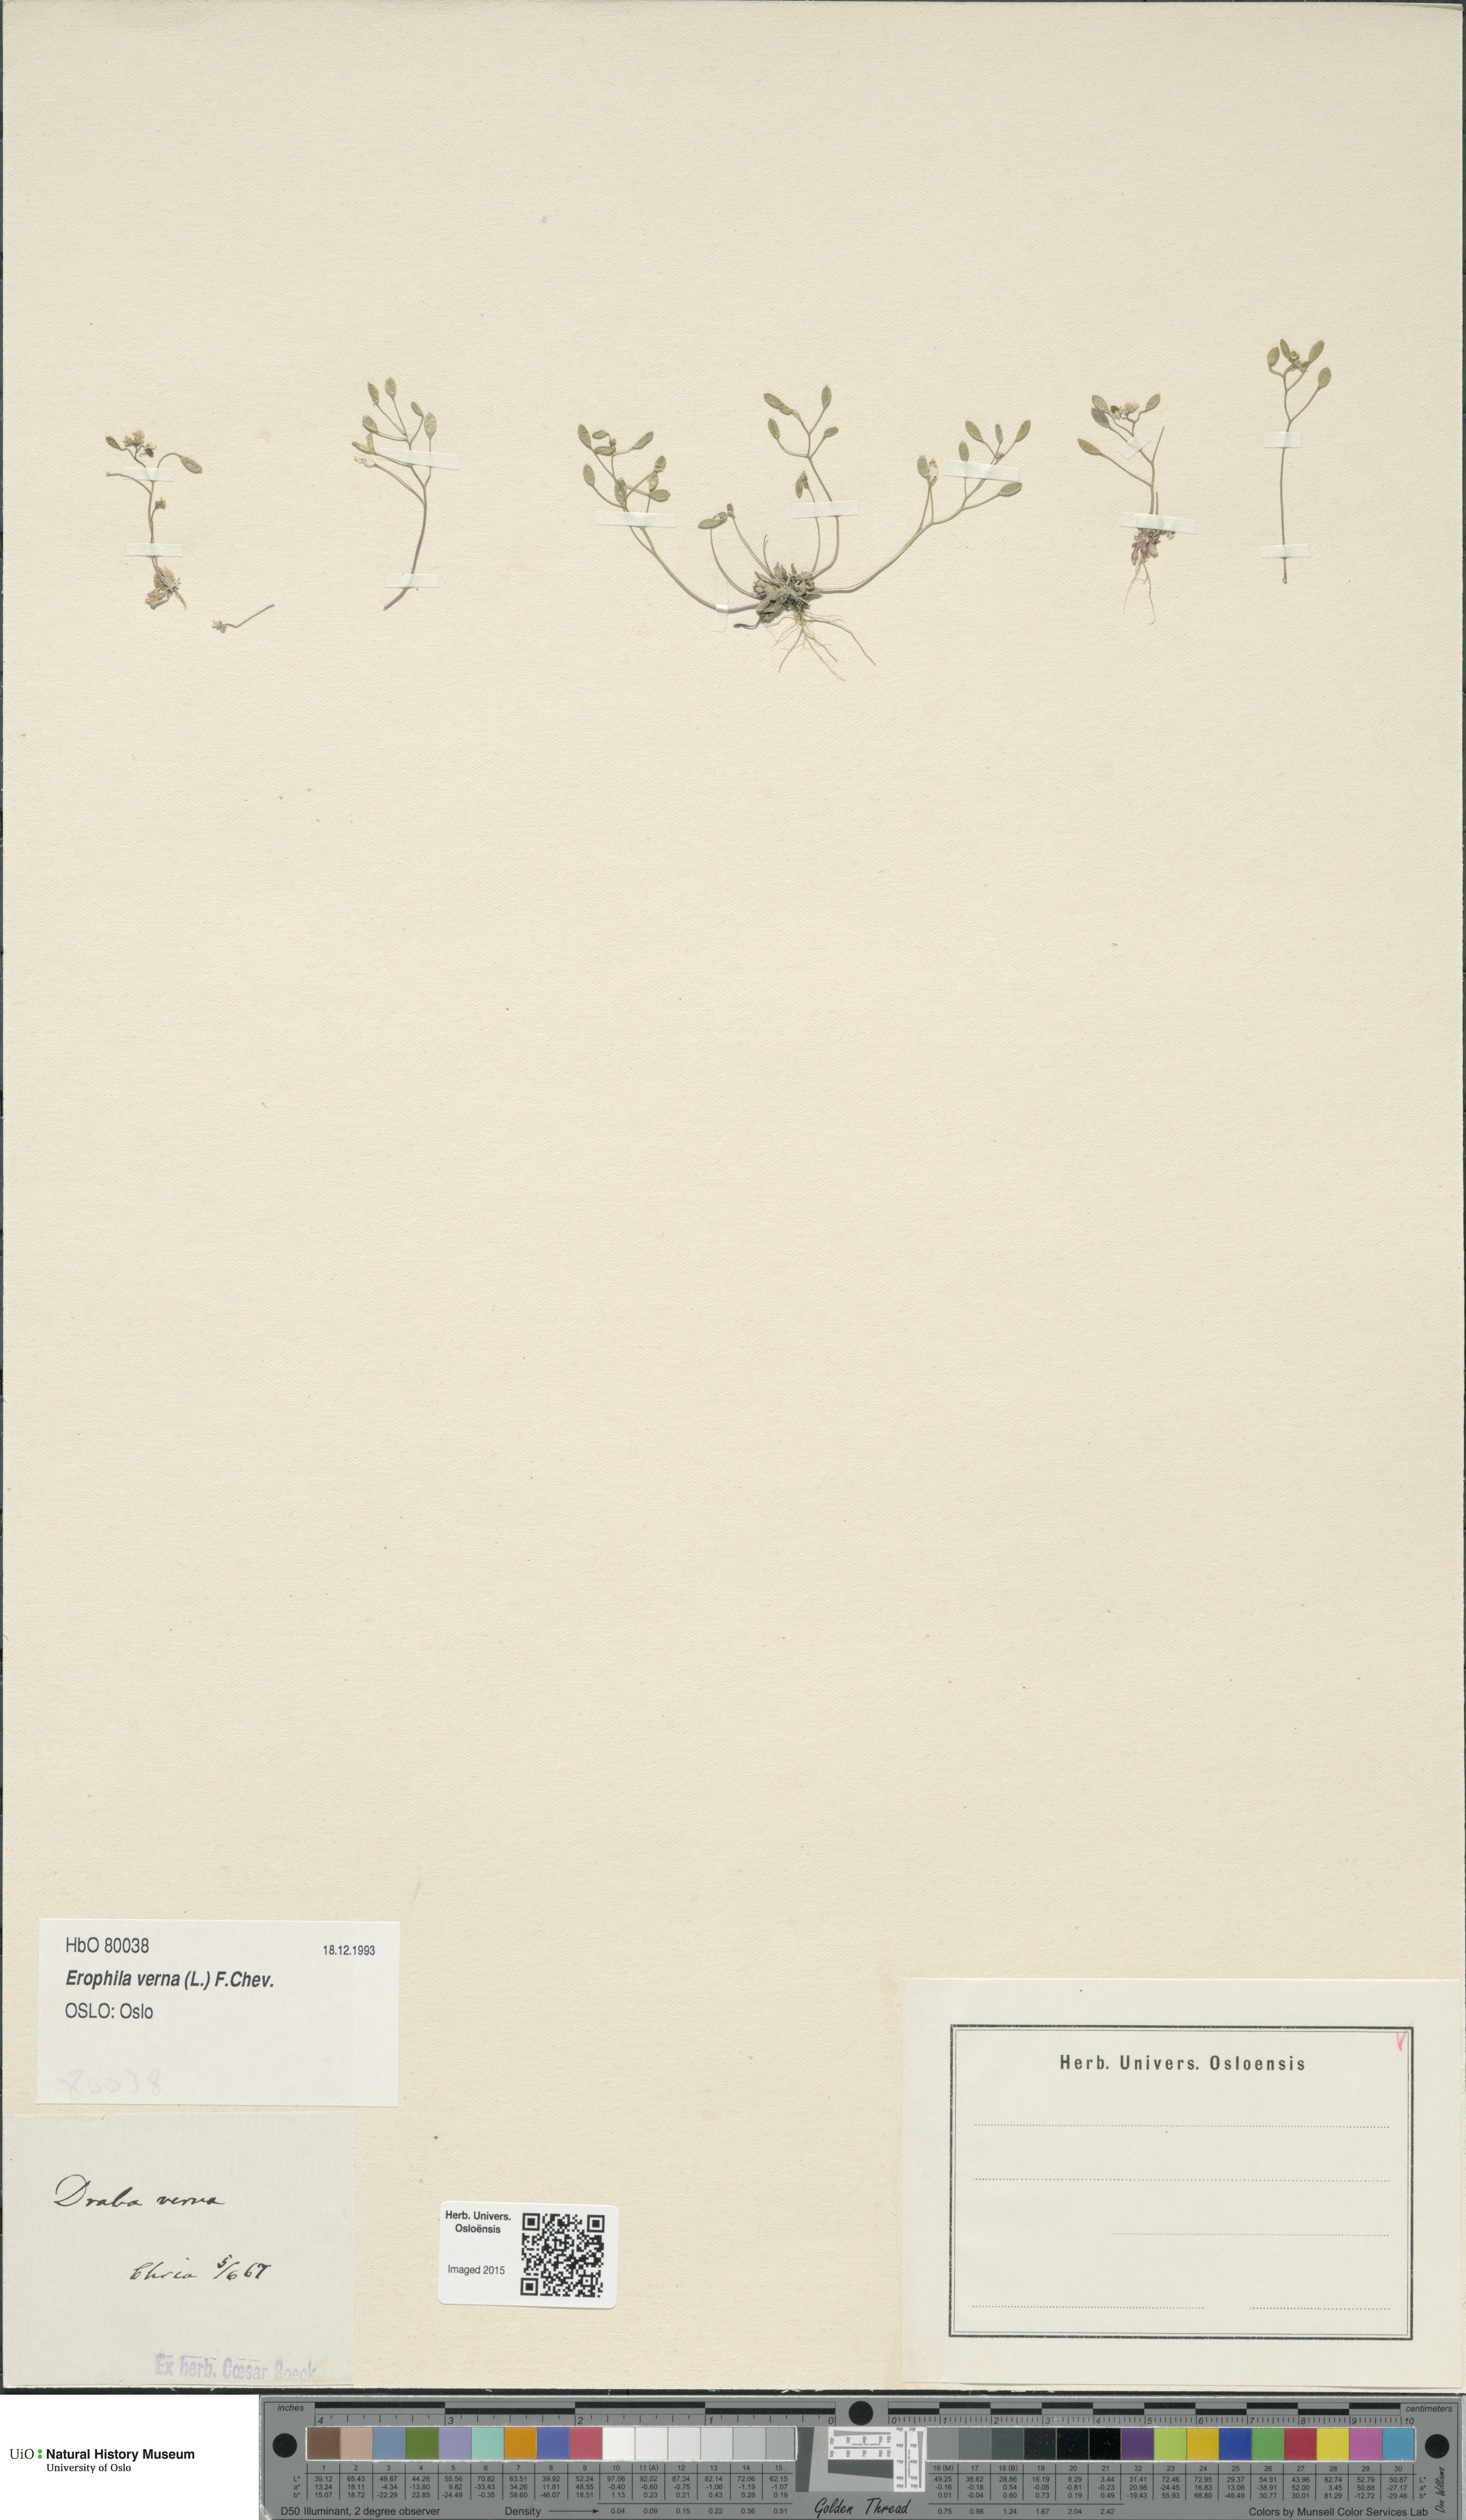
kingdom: Plantae
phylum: Tracheophyta
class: Magnoliopsida
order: Brassicales
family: Brassicaceae
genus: Draba
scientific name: Draba verna
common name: Spring draba
